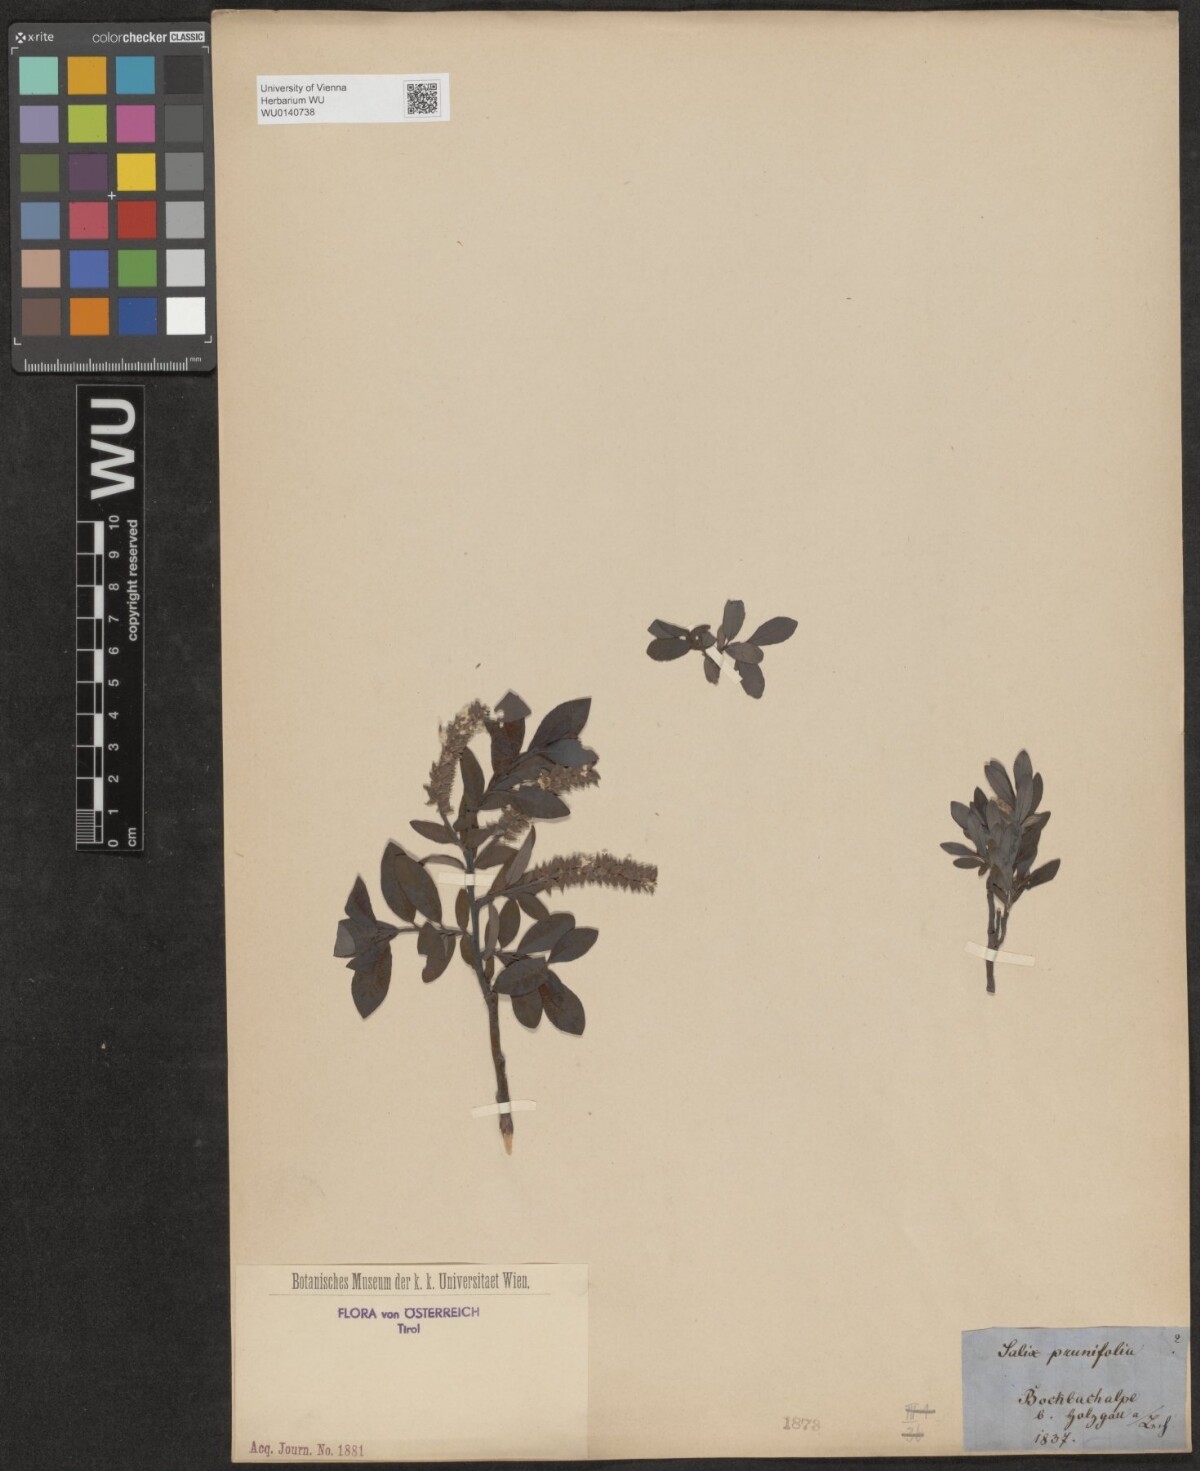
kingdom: Plantae
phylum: Tracheophyta
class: Magnoliopsida
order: Malpighiales
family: Salicaceae
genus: Salix
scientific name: Salix
